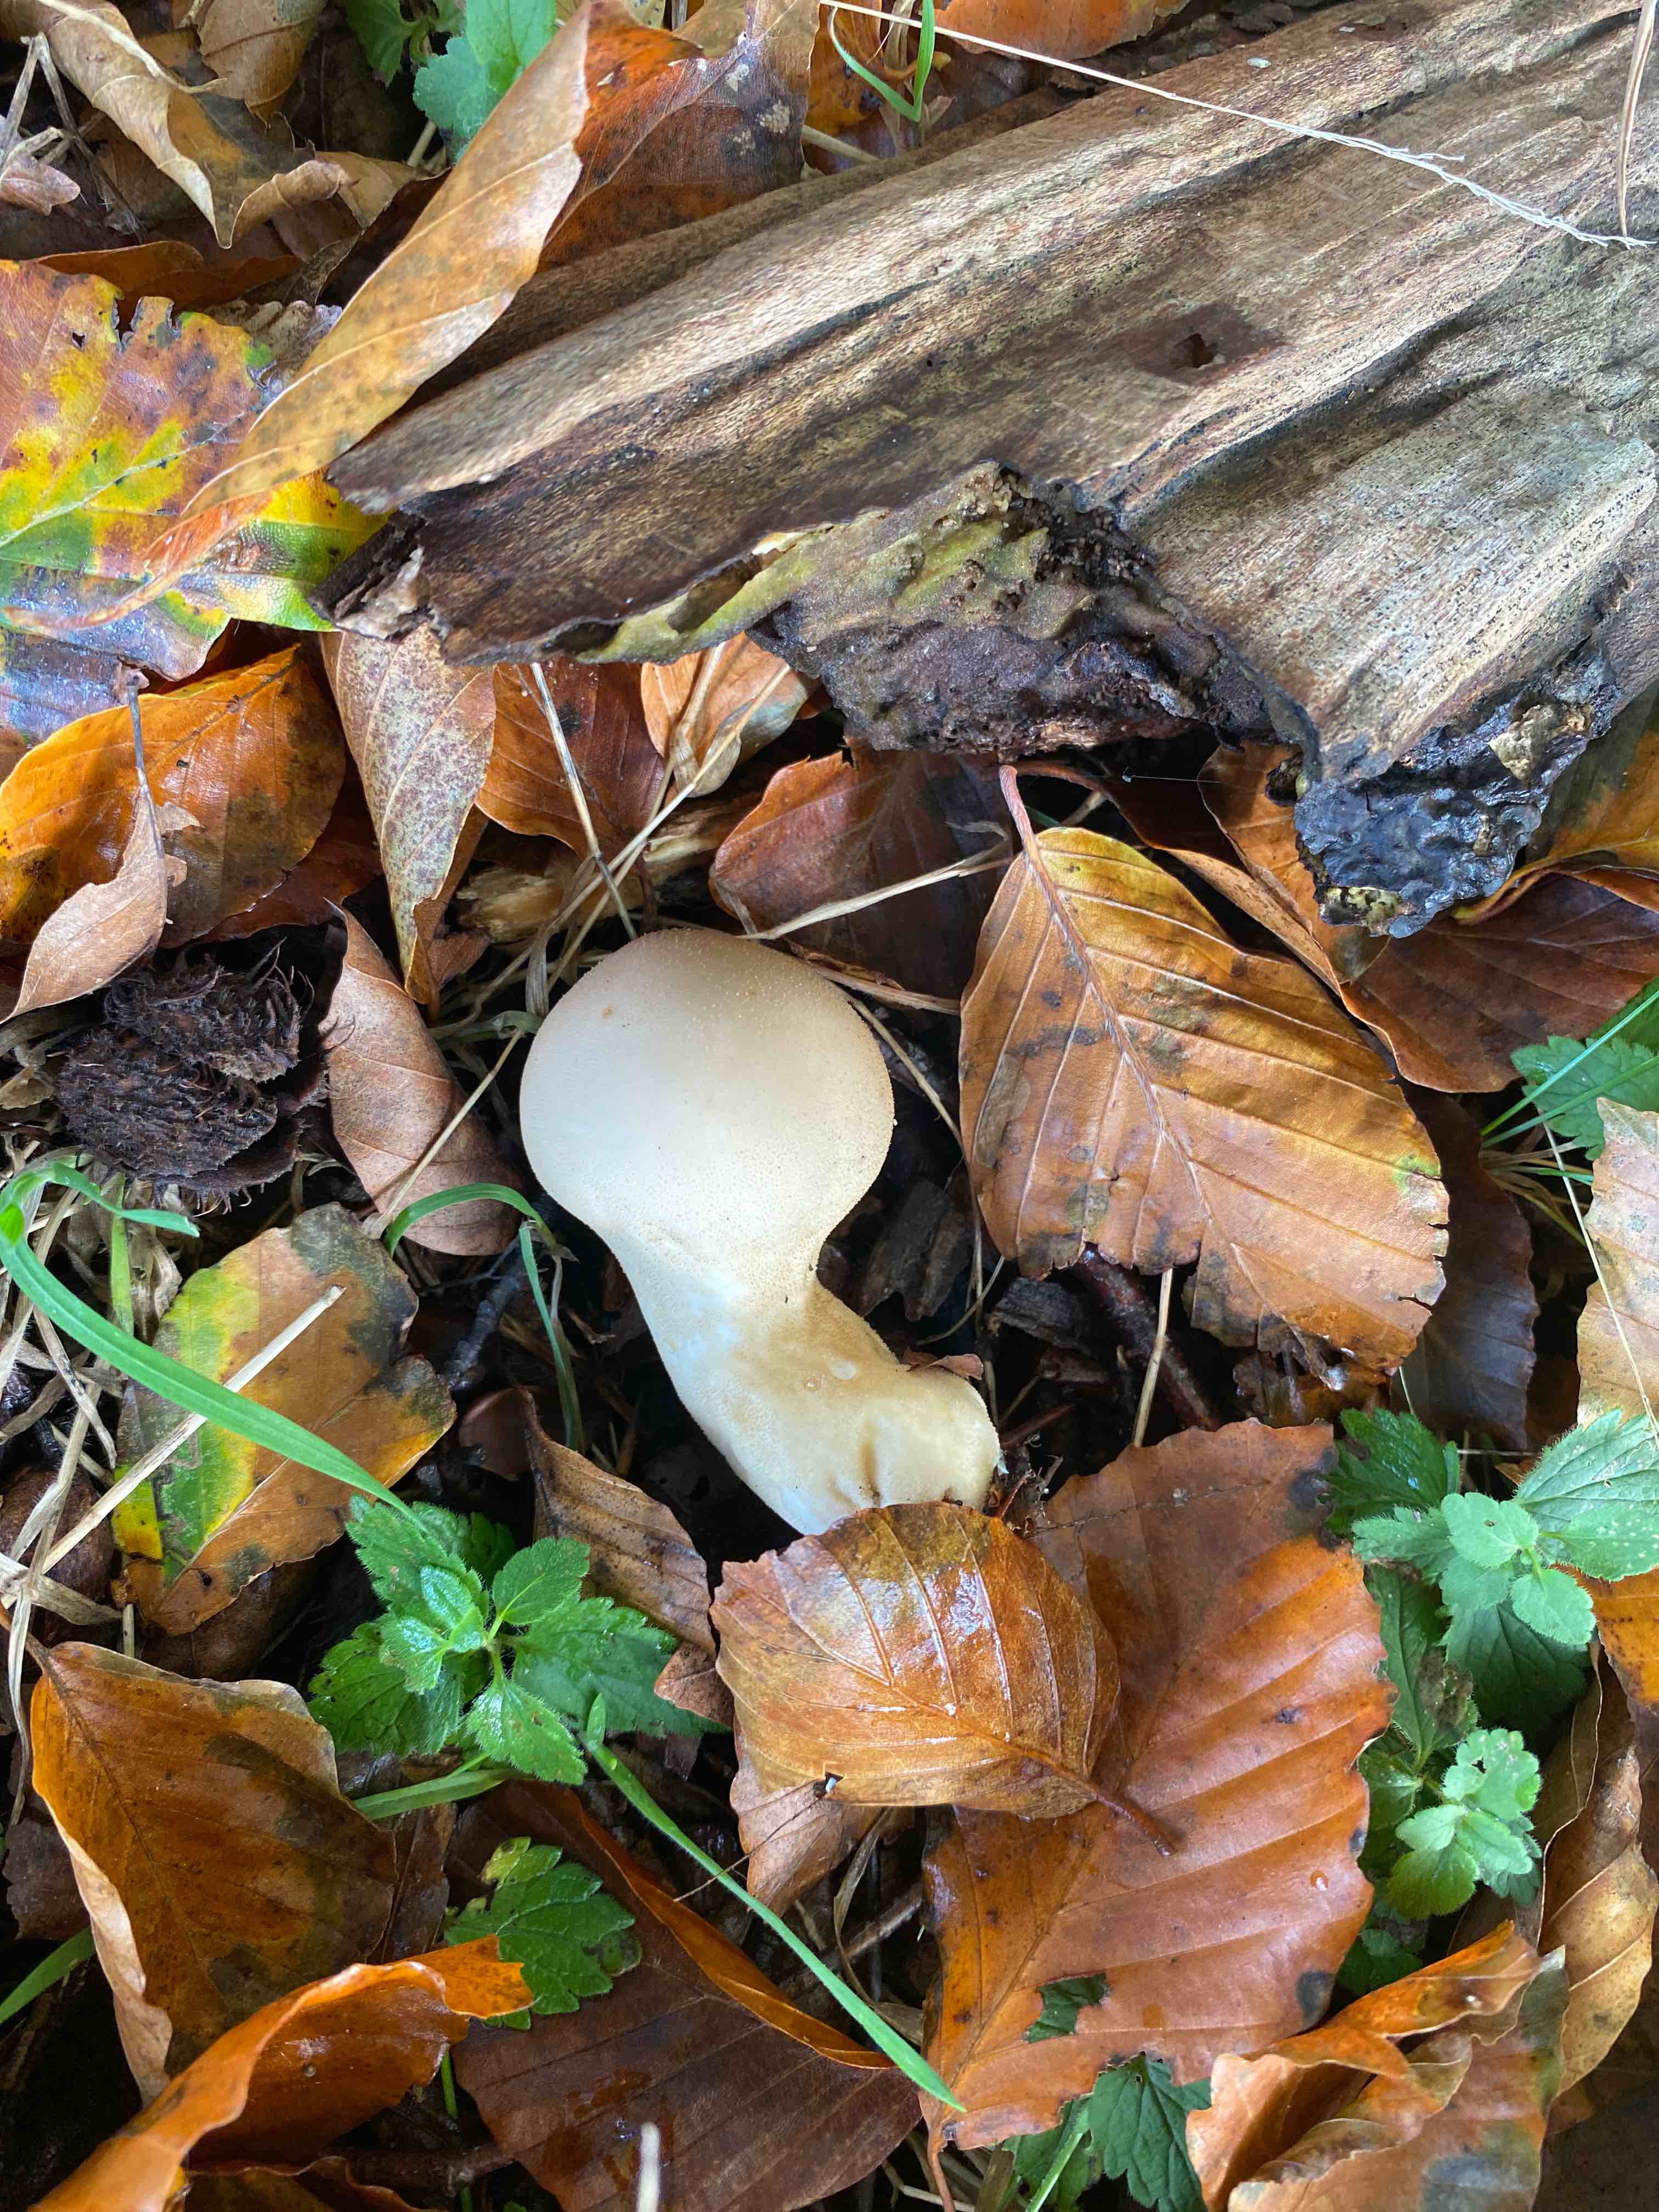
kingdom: Fungi
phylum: Basidiomycota
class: Agaricomycetes
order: Agaricales
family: Lycoperdaceae
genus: Apioperdon
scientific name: Apioperdon pyriforme
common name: pære-støvbold
